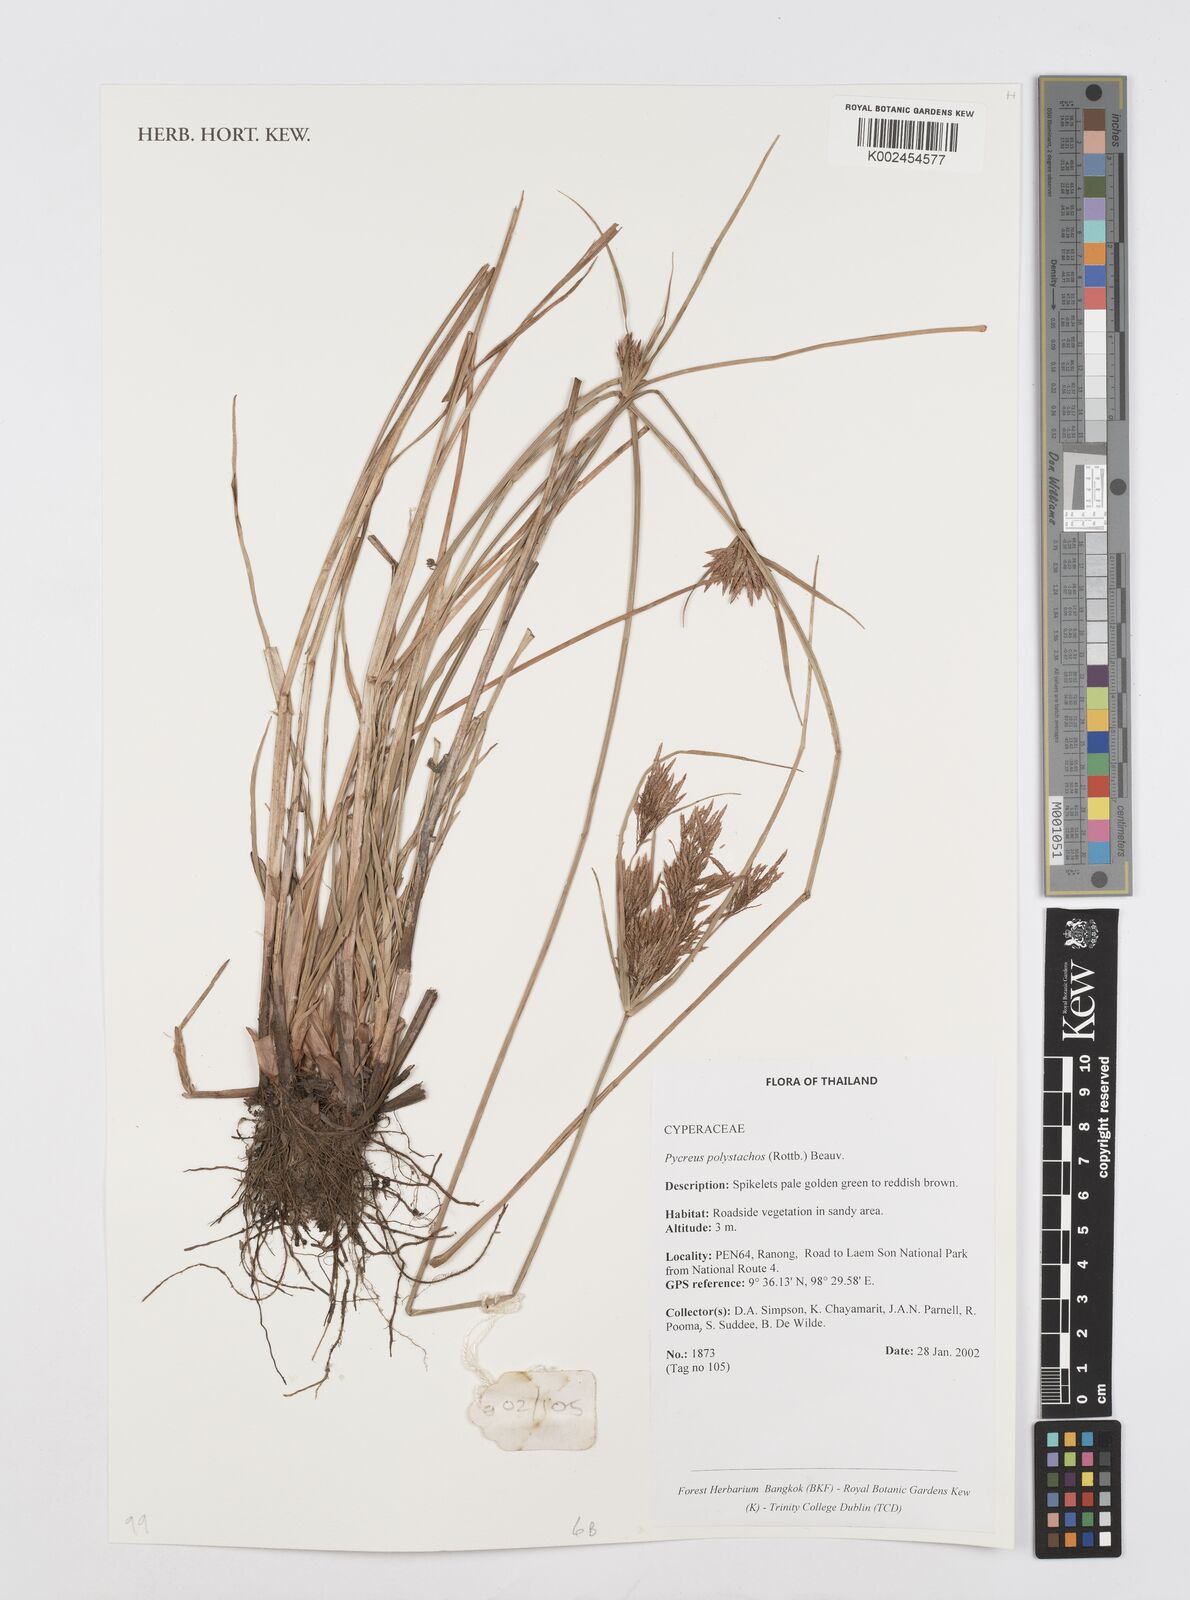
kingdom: Plantae
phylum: Tracheophyta
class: Liliopsida
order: Poales
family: Cyperaceae
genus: Cyperus
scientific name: Cyperus polystachyos
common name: Bunchy flat sedge
